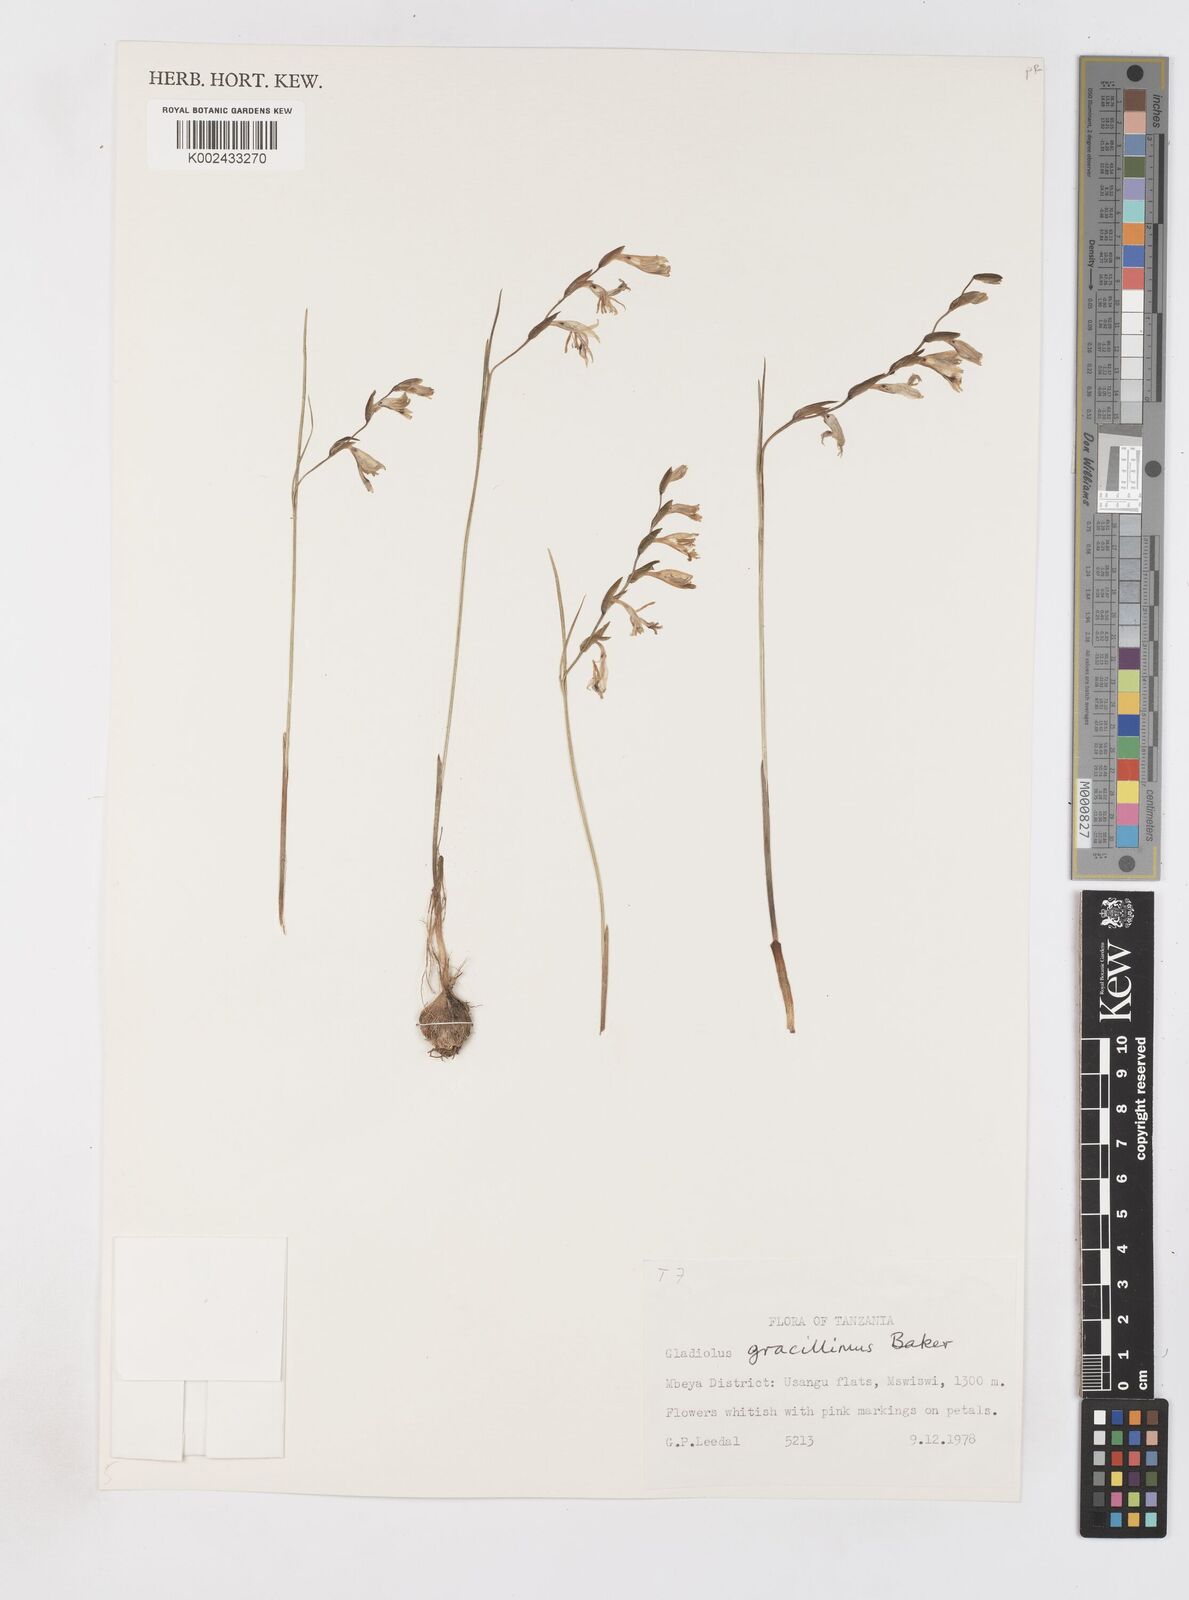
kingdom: Plantae
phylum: Tracheophyta
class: Liliopsida
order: Asparagales
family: Iridaceae
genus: Gladiolus
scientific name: Gladiolus gracillimus
